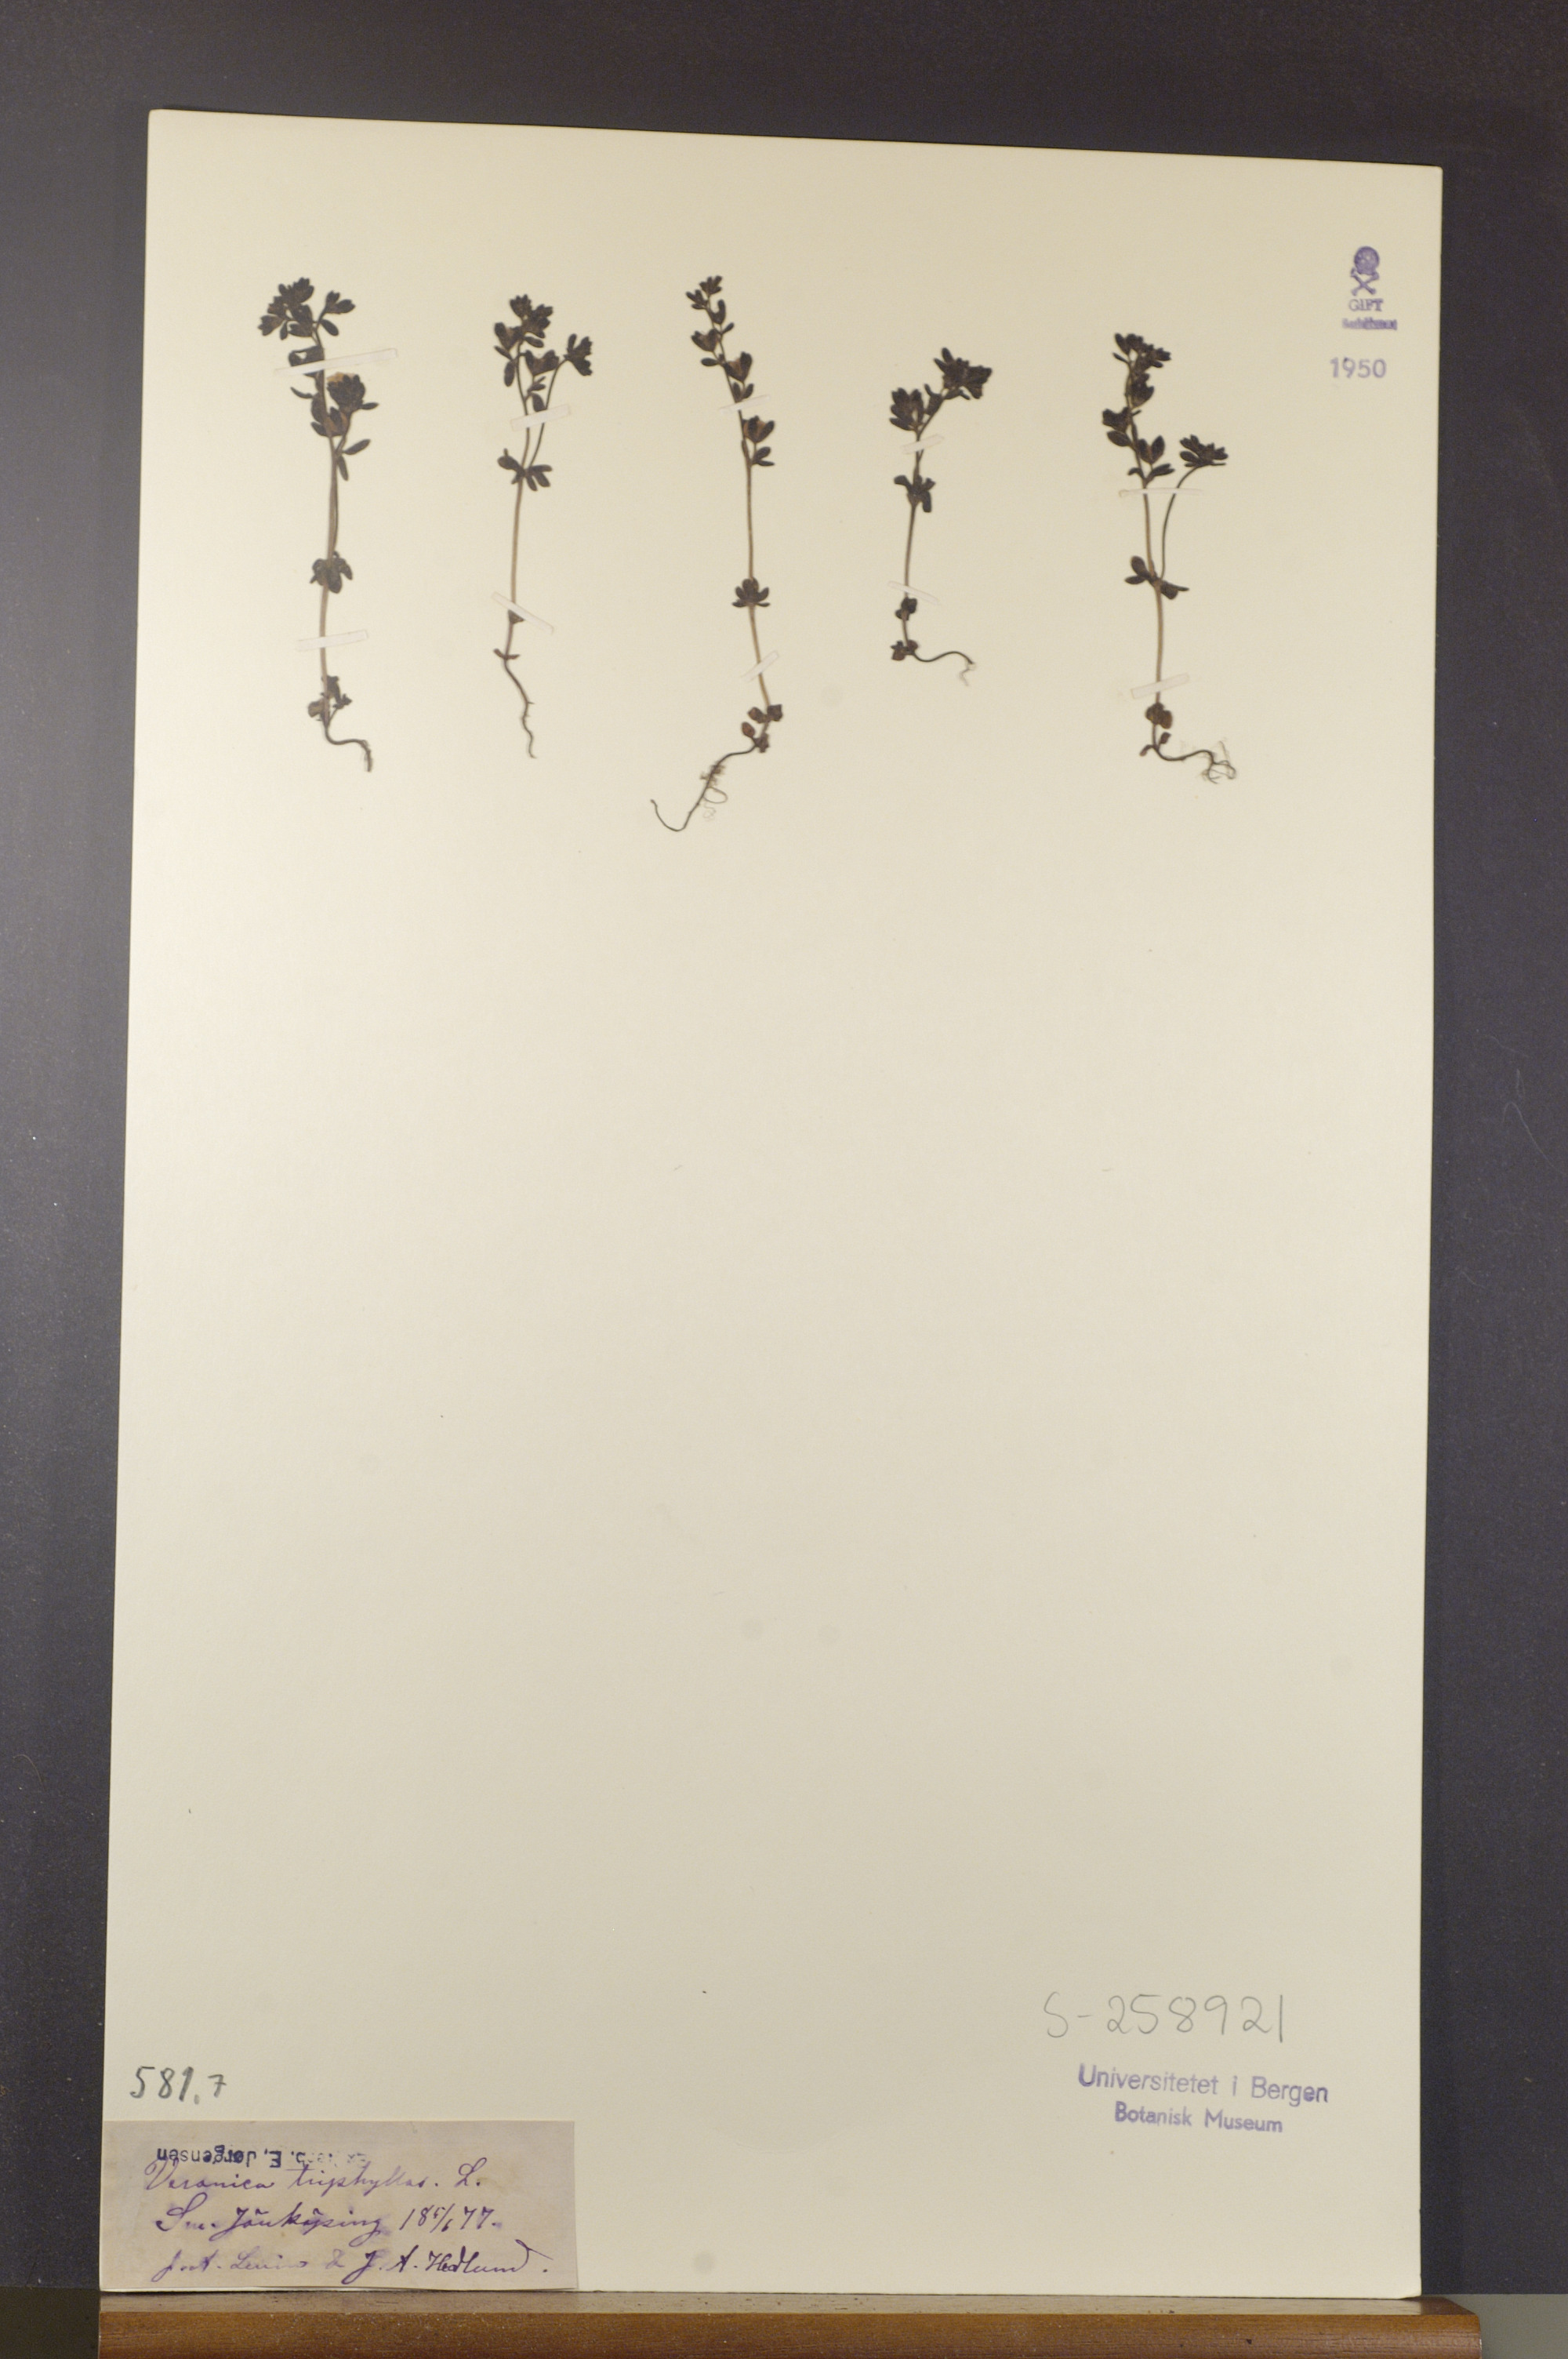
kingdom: Plantae
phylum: Tracheophyta
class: Magnoliopsida
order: Lamiales
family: Plantaginaceae
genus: Veronica
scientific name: Veronica triphyllos
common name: Fingered speedwell
